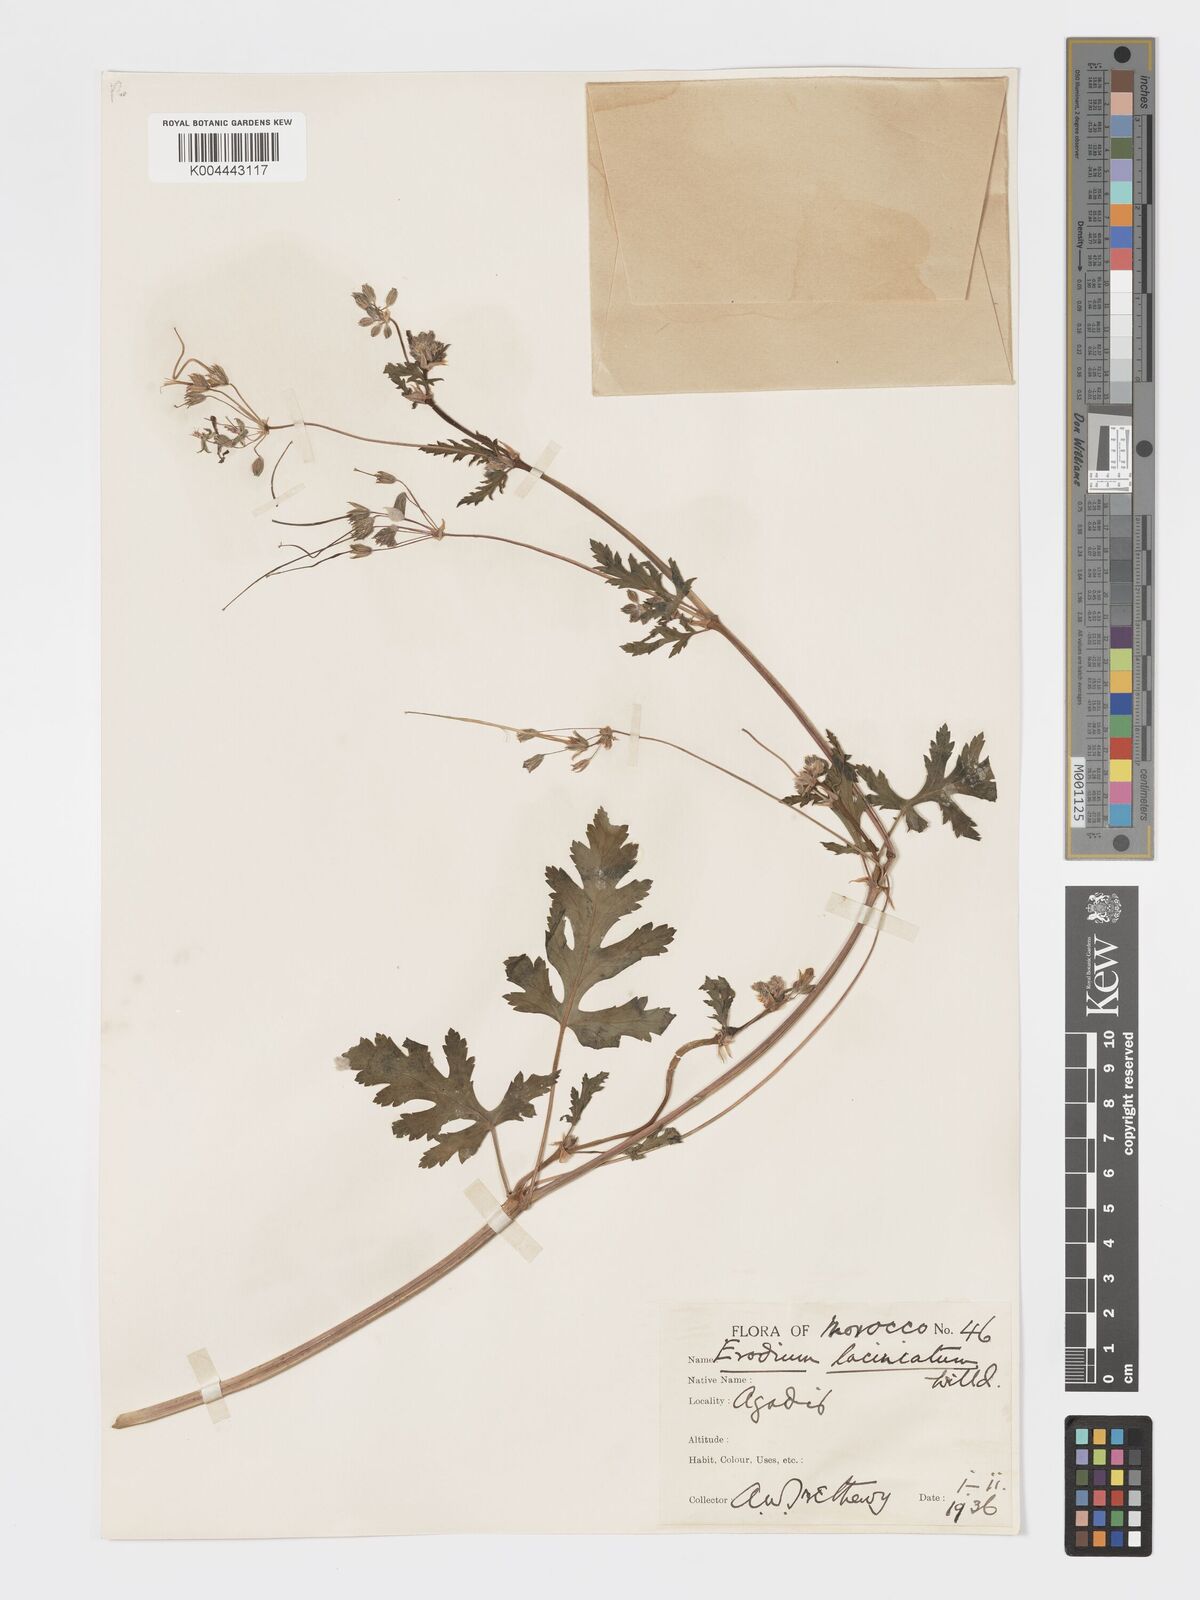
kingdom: Plantae
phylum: Tracheophyta
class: Magnoliopsida
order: Geraniales
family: Geraniaceae
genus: Erodium
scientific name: Erodium hesperium
